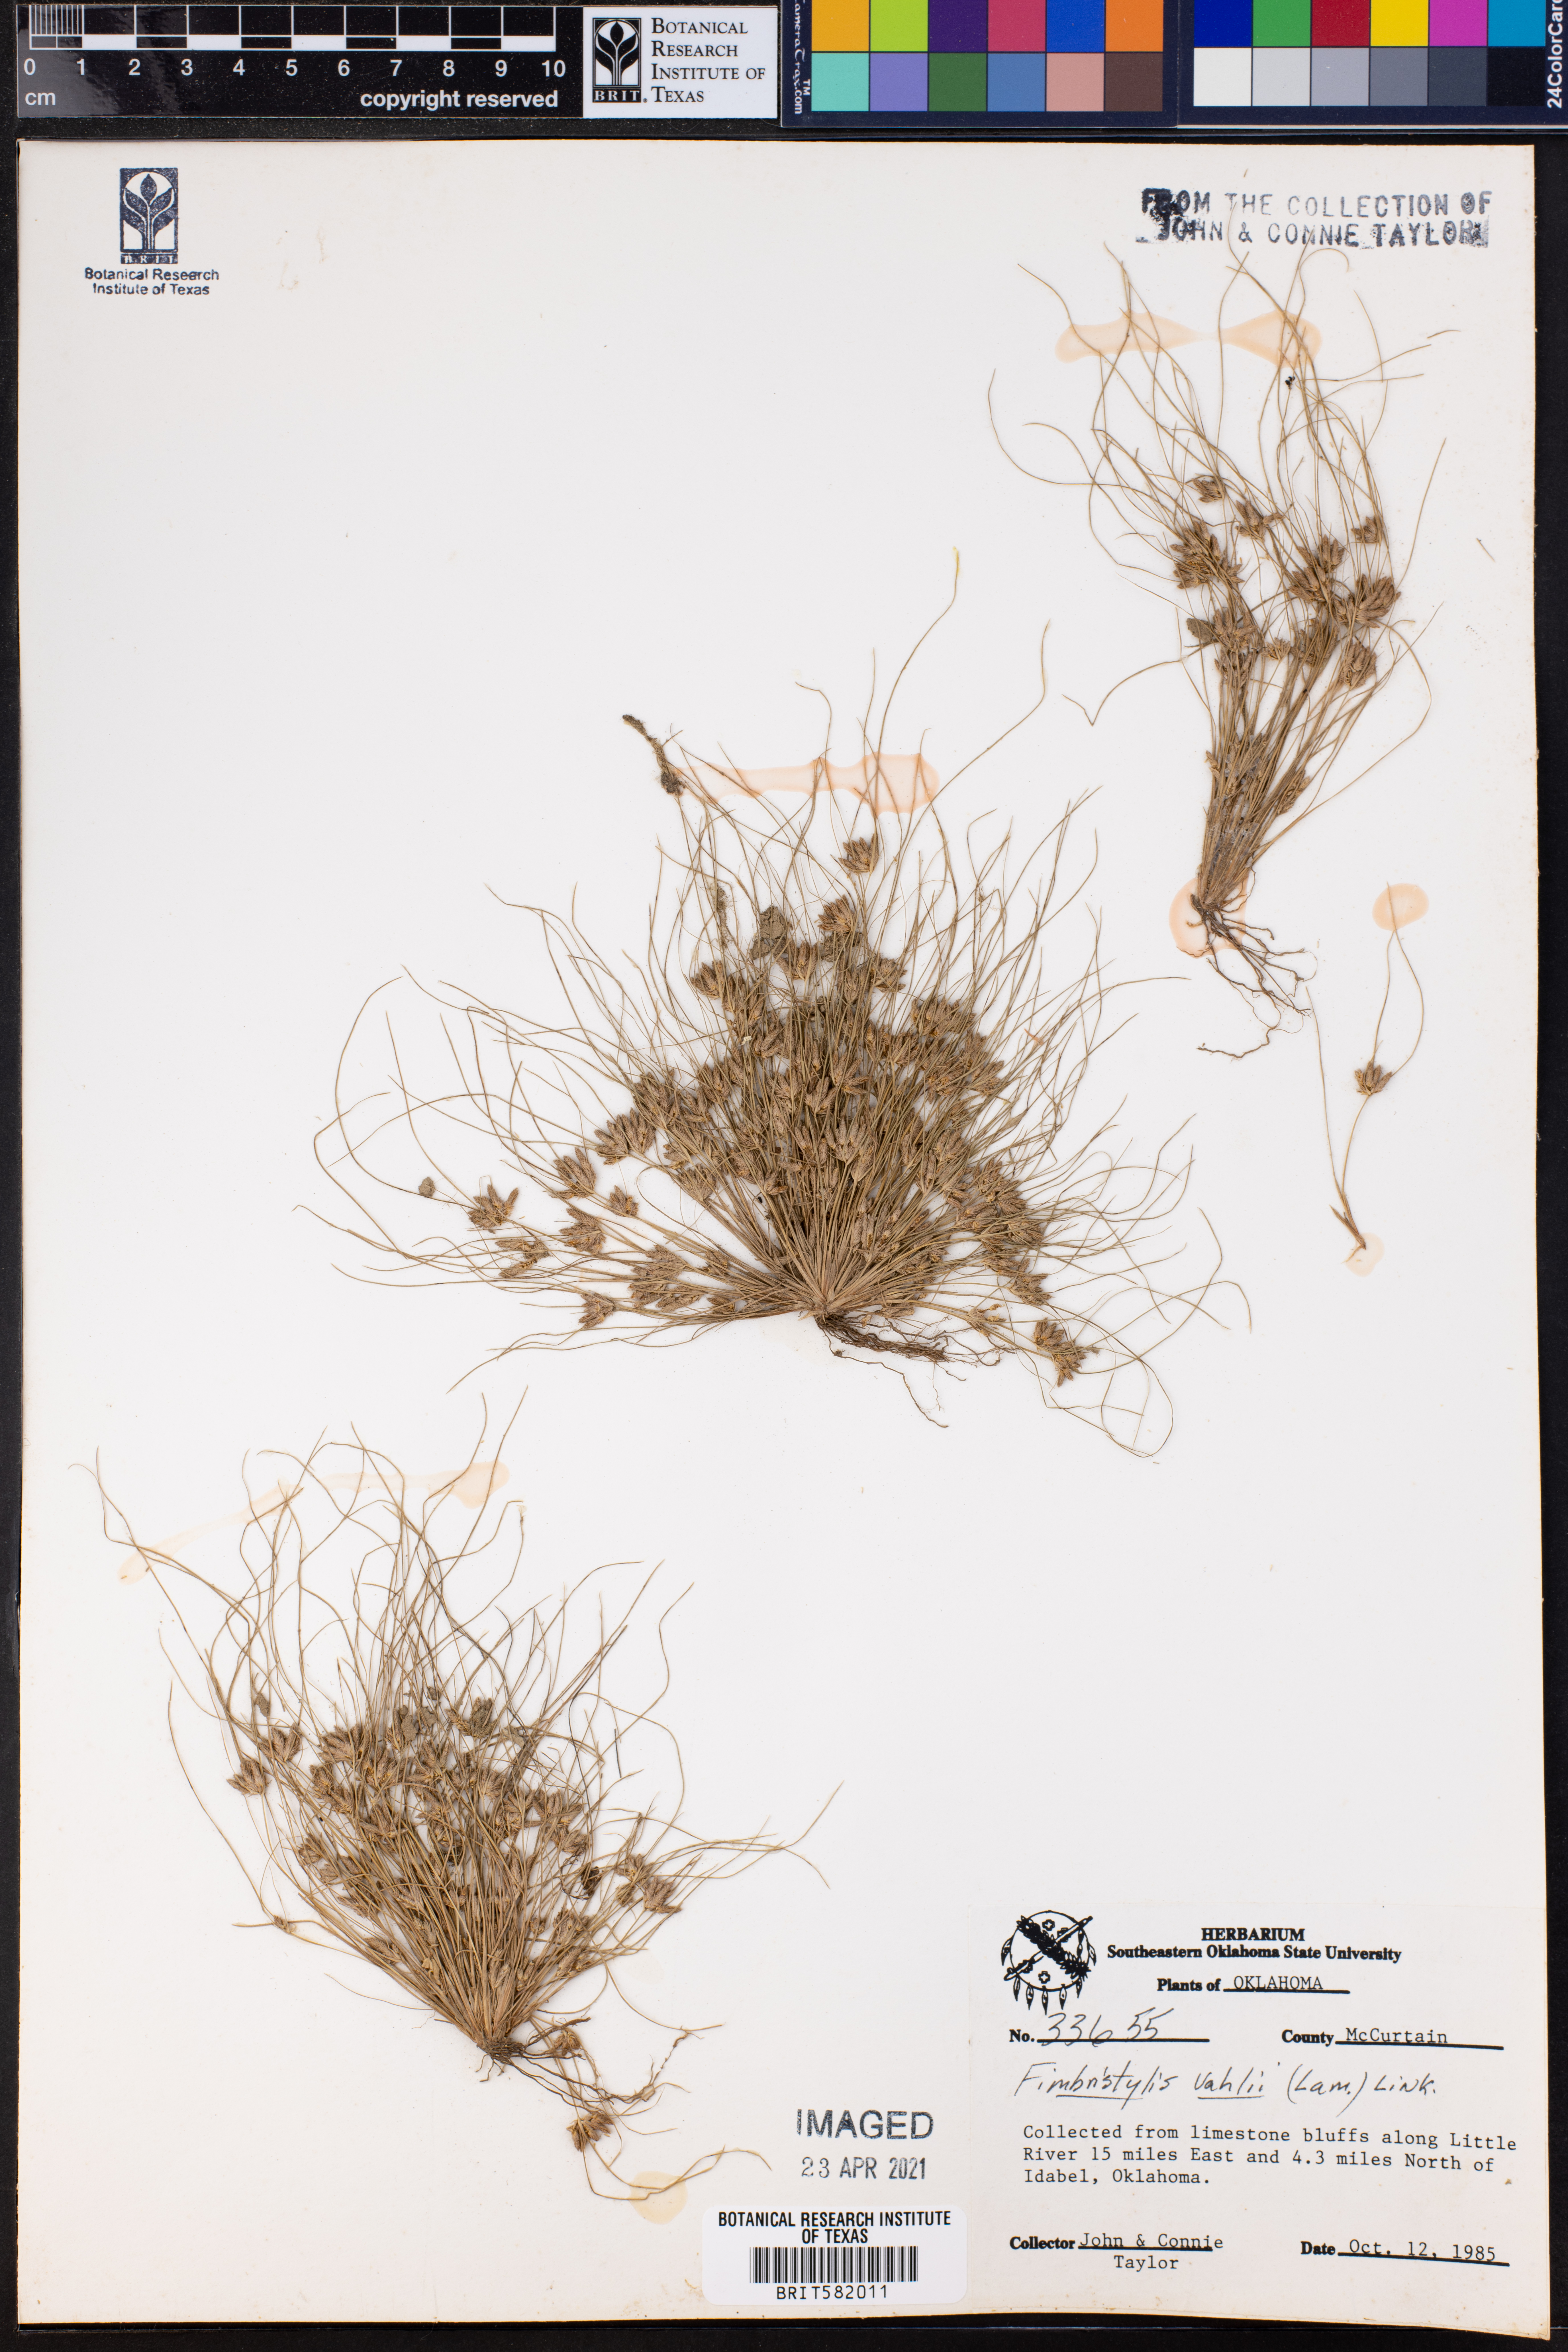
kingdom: Plantae
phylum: Tracheophyta
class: Liliopsida
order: Poales
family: Cyperaceae
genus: Fimbristylis
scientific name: Fimbristylis vahlii
